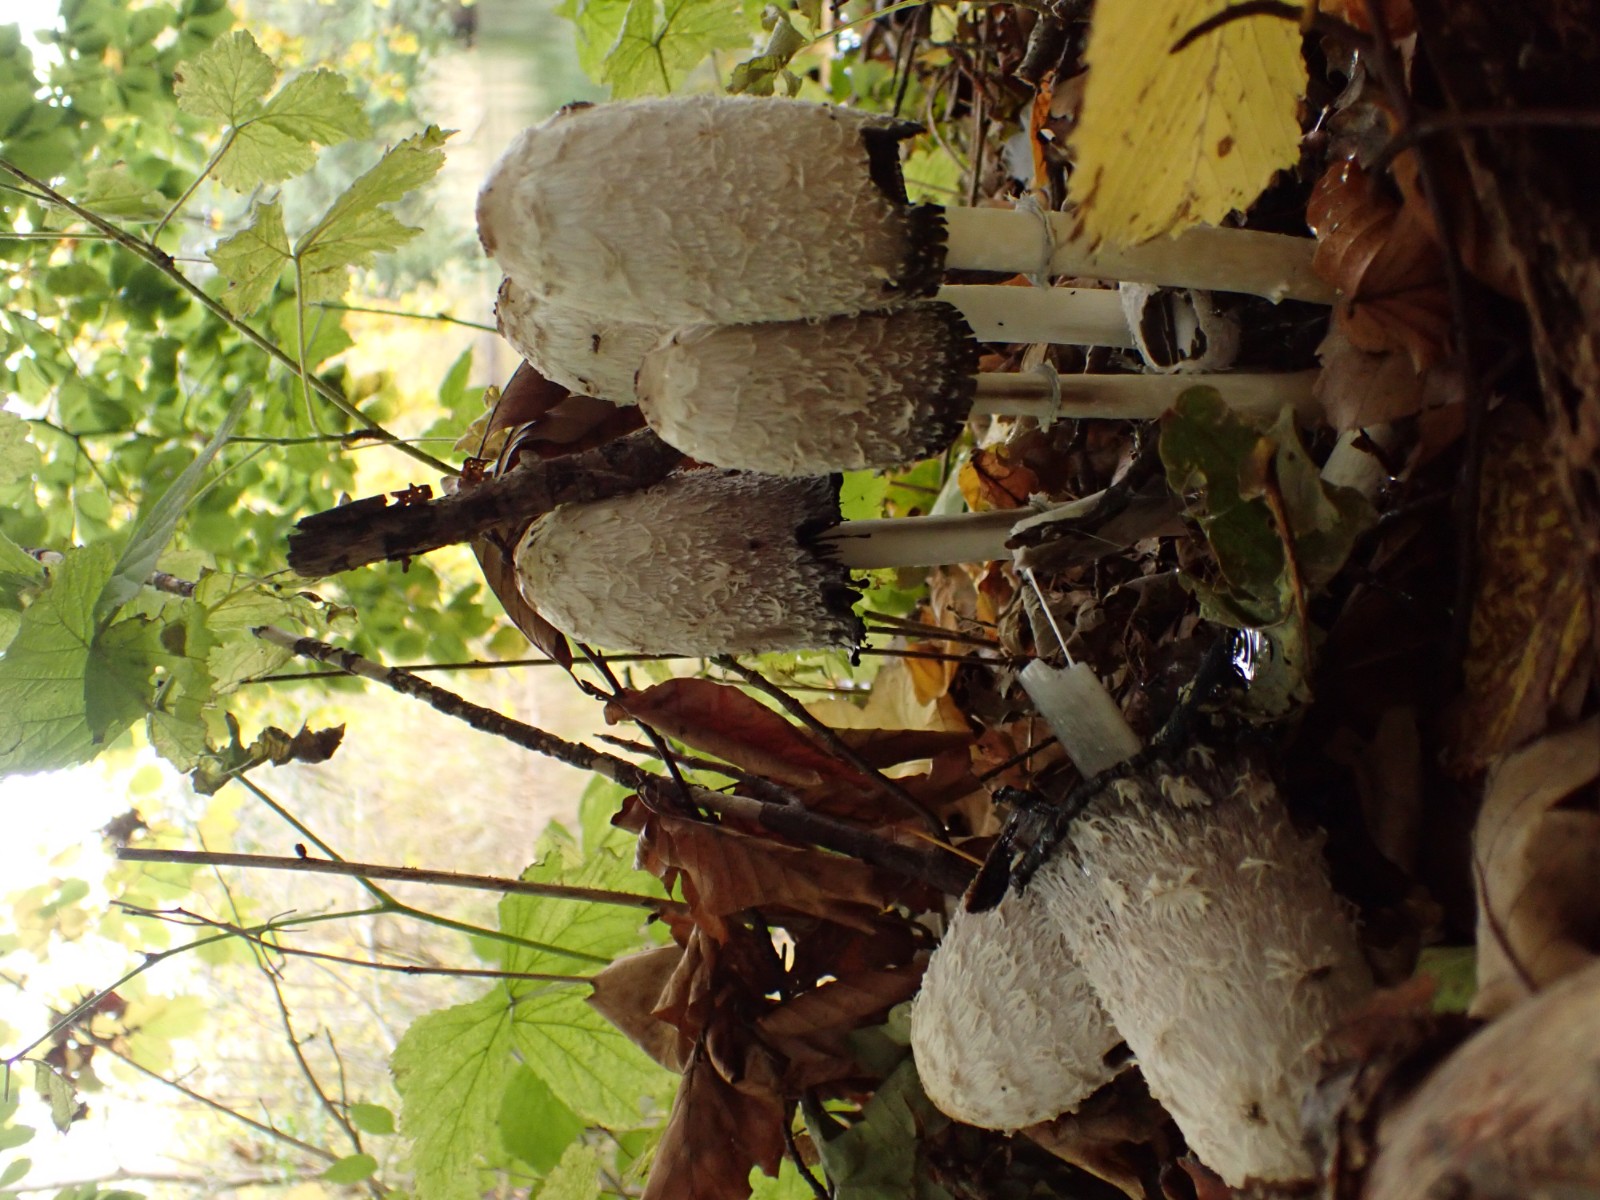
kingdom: Fungi
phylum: Basidiomycota
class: Agaricomycetes
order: Agaricales
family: Agaricaceae
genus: Coprinus
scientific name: Coprinus comatus
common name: stor parykhat
